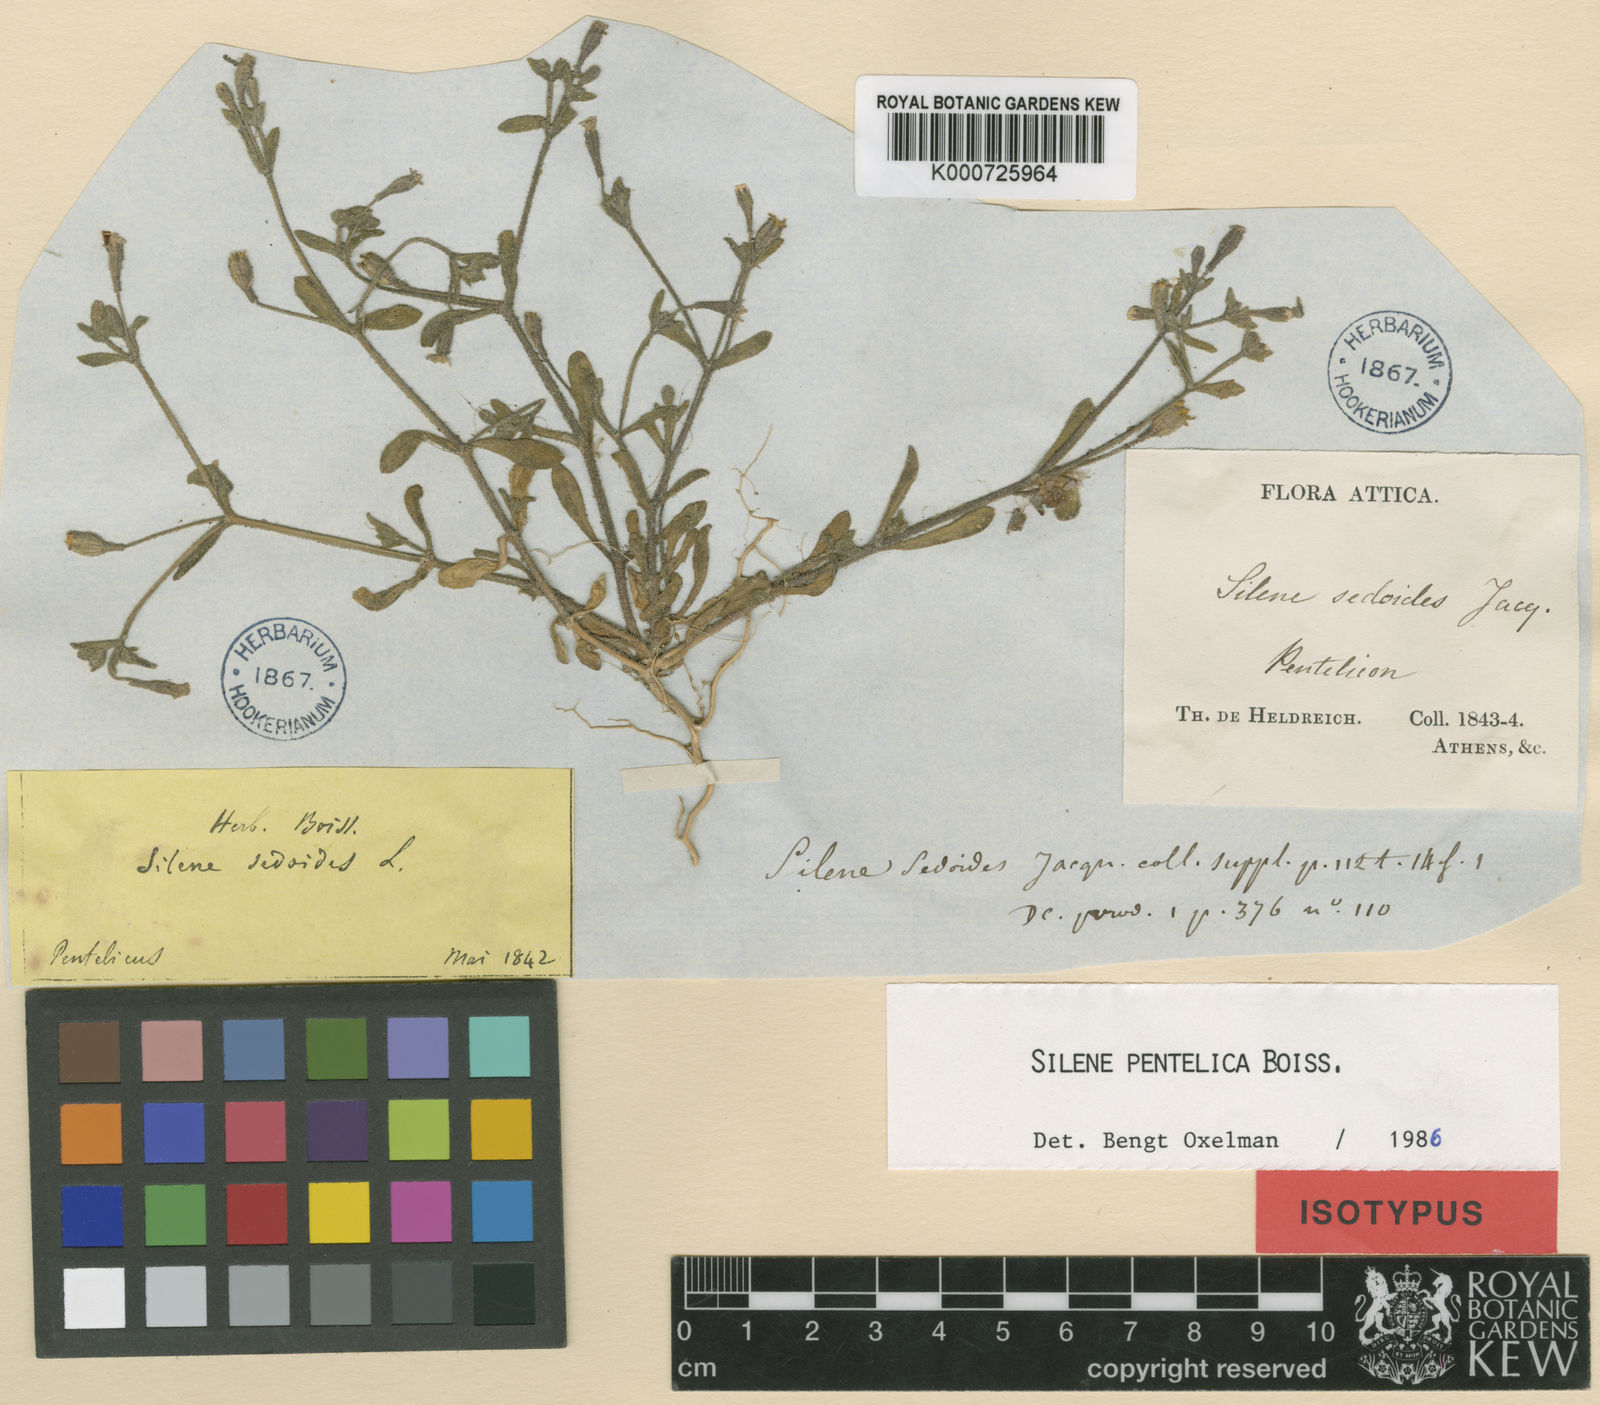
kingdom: Plantae
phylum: Tracheophyta
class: Magnoliopsida
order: Caryophyllales
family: Caryophyllaceae
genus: Silene
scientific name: Silene pentelica
